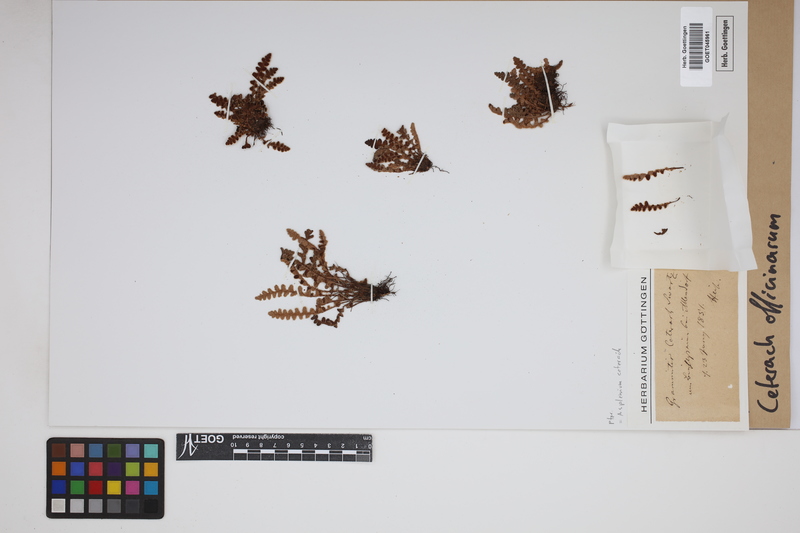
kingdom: Plantae
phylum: Tracheophyta
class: Polypodiopsida
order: Polypodiales
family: Aspleniaceae
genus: Asplenium
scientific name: Asplenium ceterach
